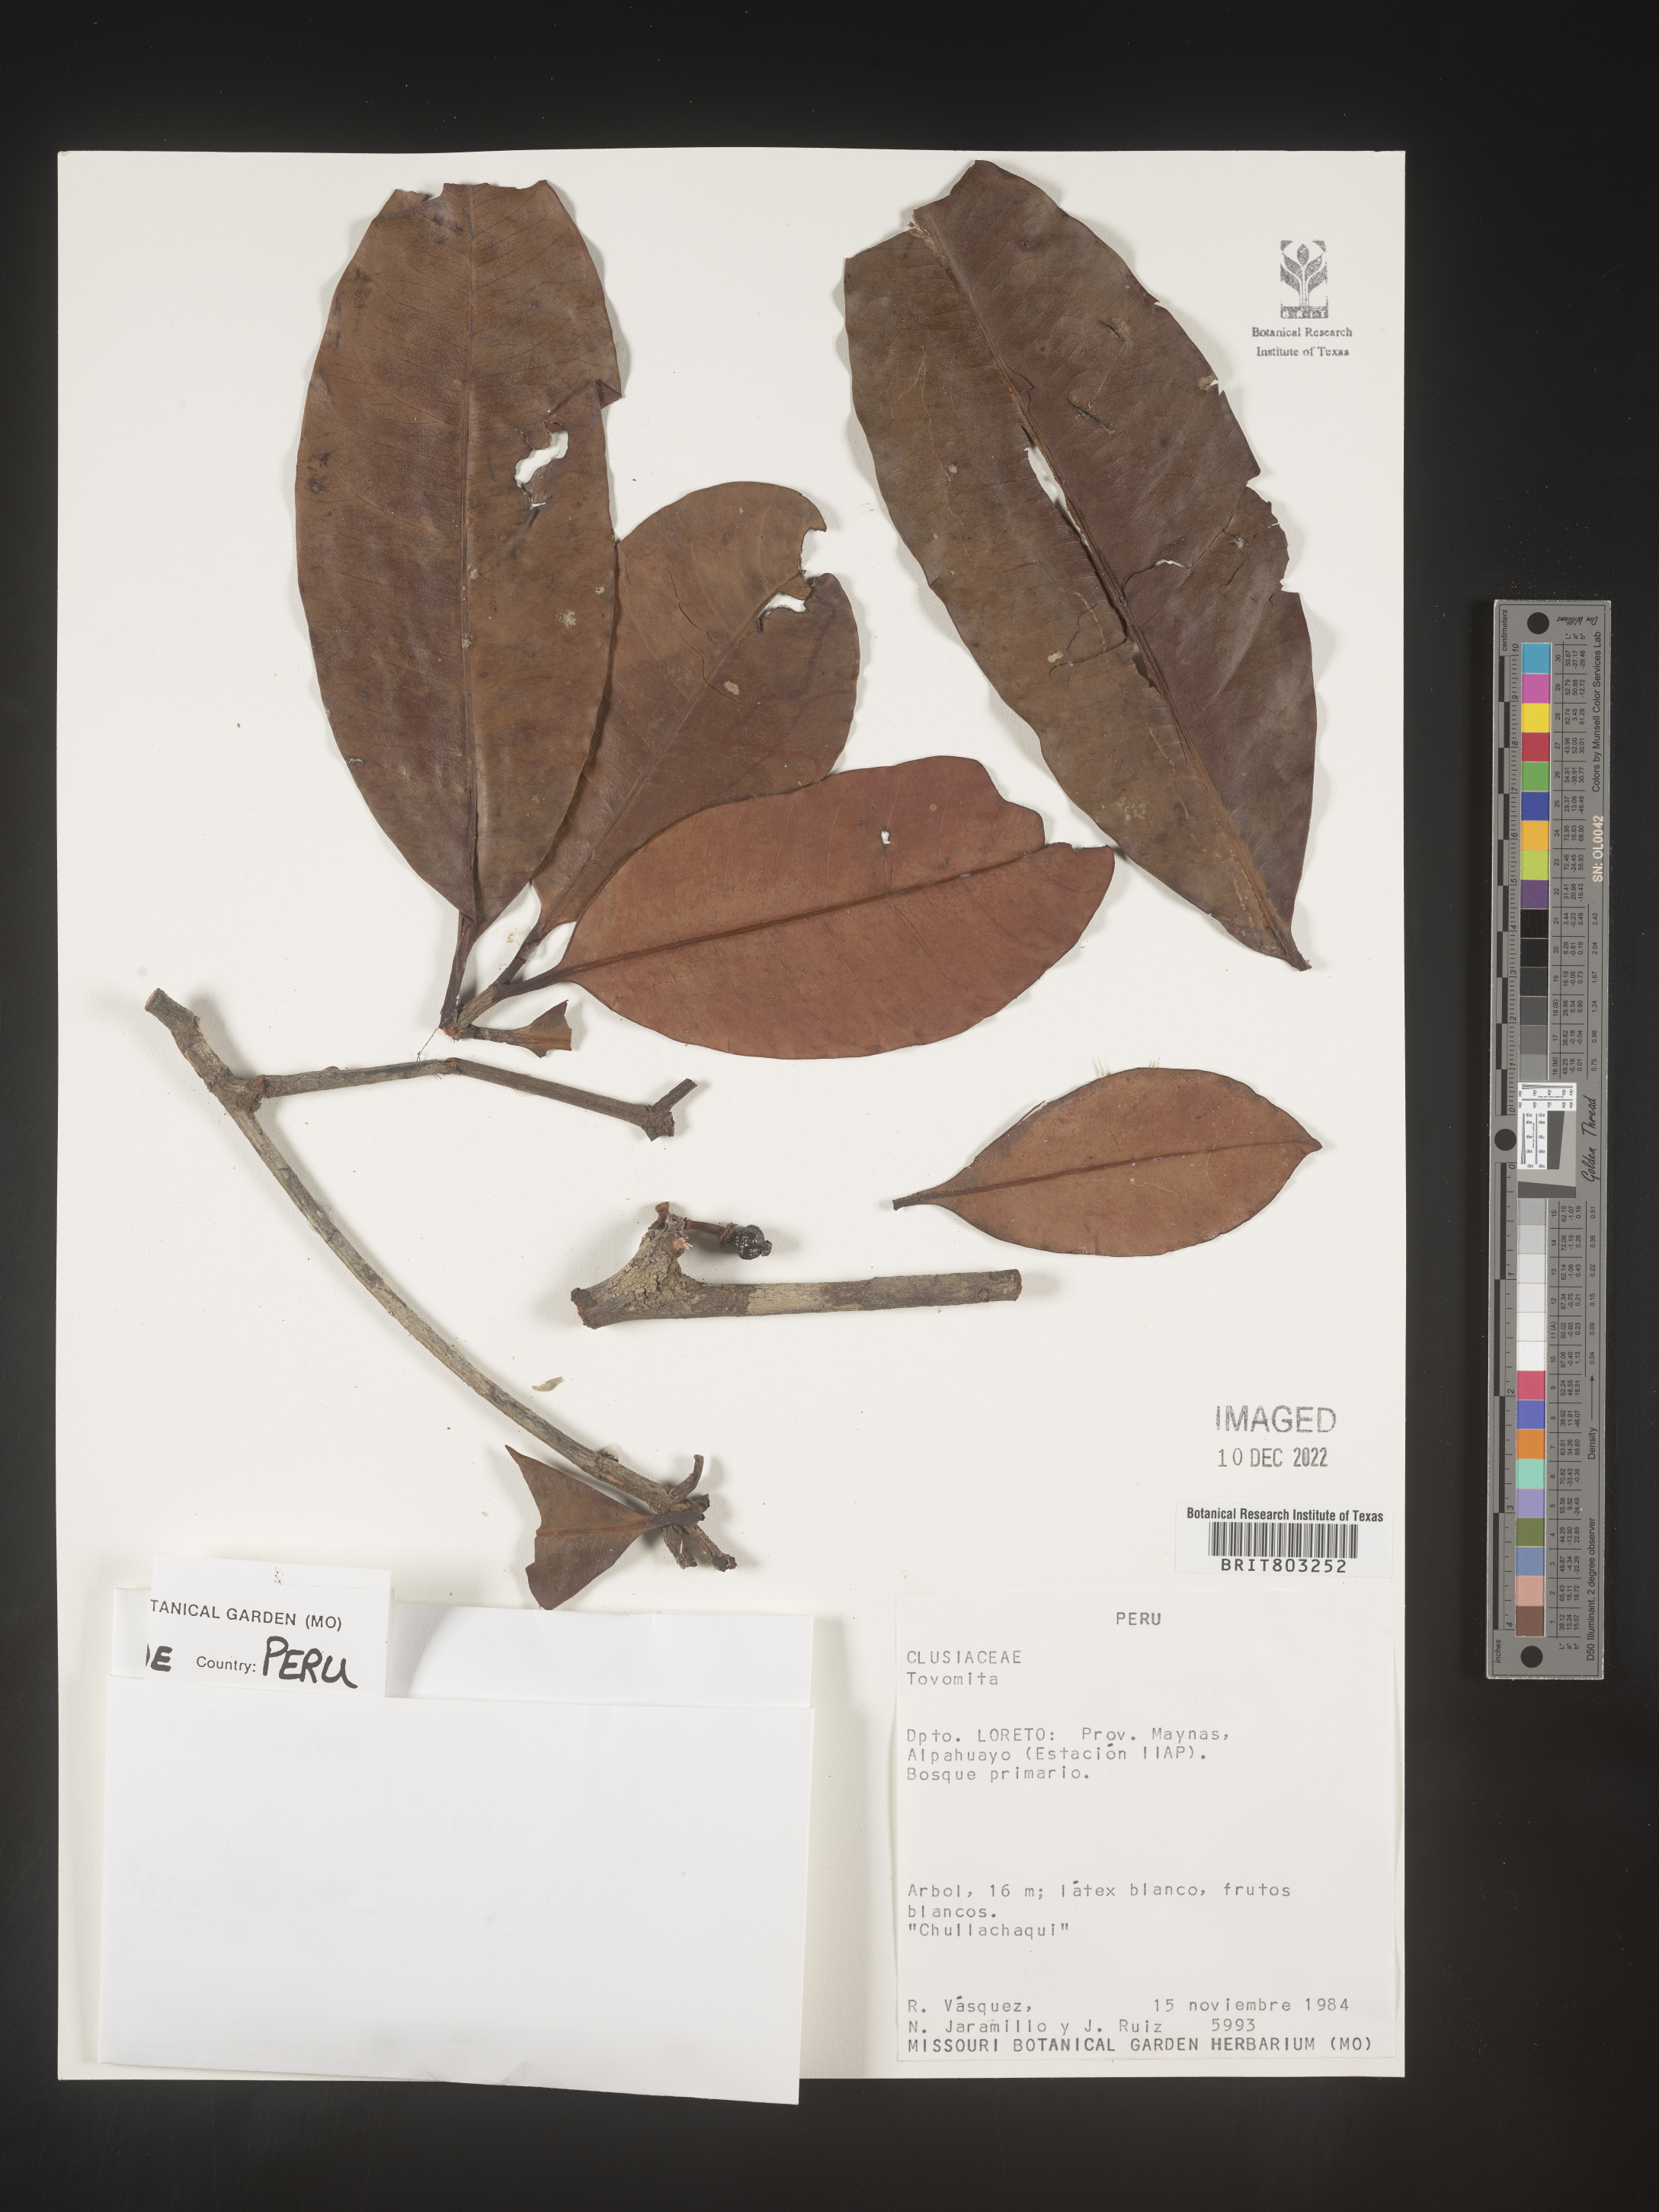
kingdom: Plantae
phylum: Tracheophyta
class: Magnoliopsida
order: Malpighiales
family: Clusiaceae
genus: Tovomita
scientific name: Tovomita
